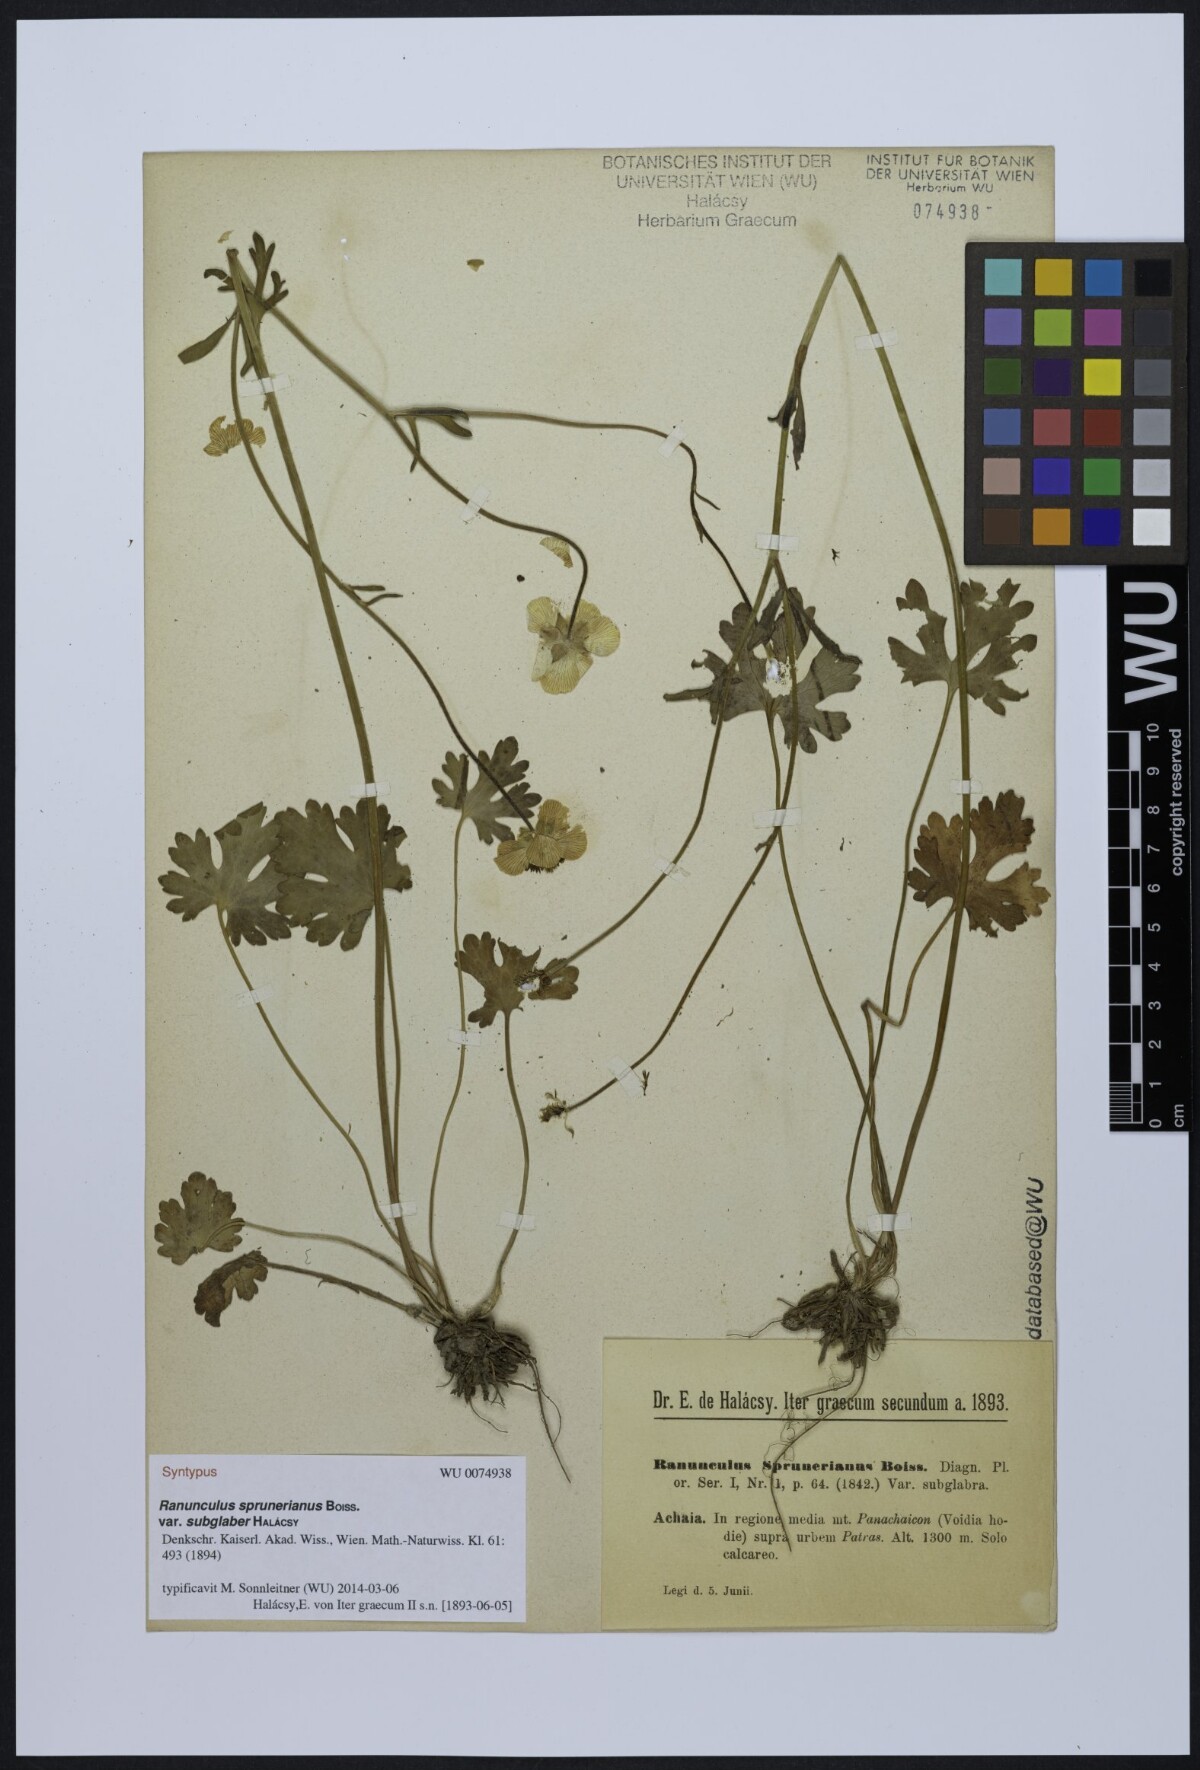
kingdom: Plantae
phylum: Tracheophyta
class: Magnoliopsida
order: Ranunculales
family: Ranunculaceae
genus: Ranunculus
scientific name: Ranunculus sprunerianus
